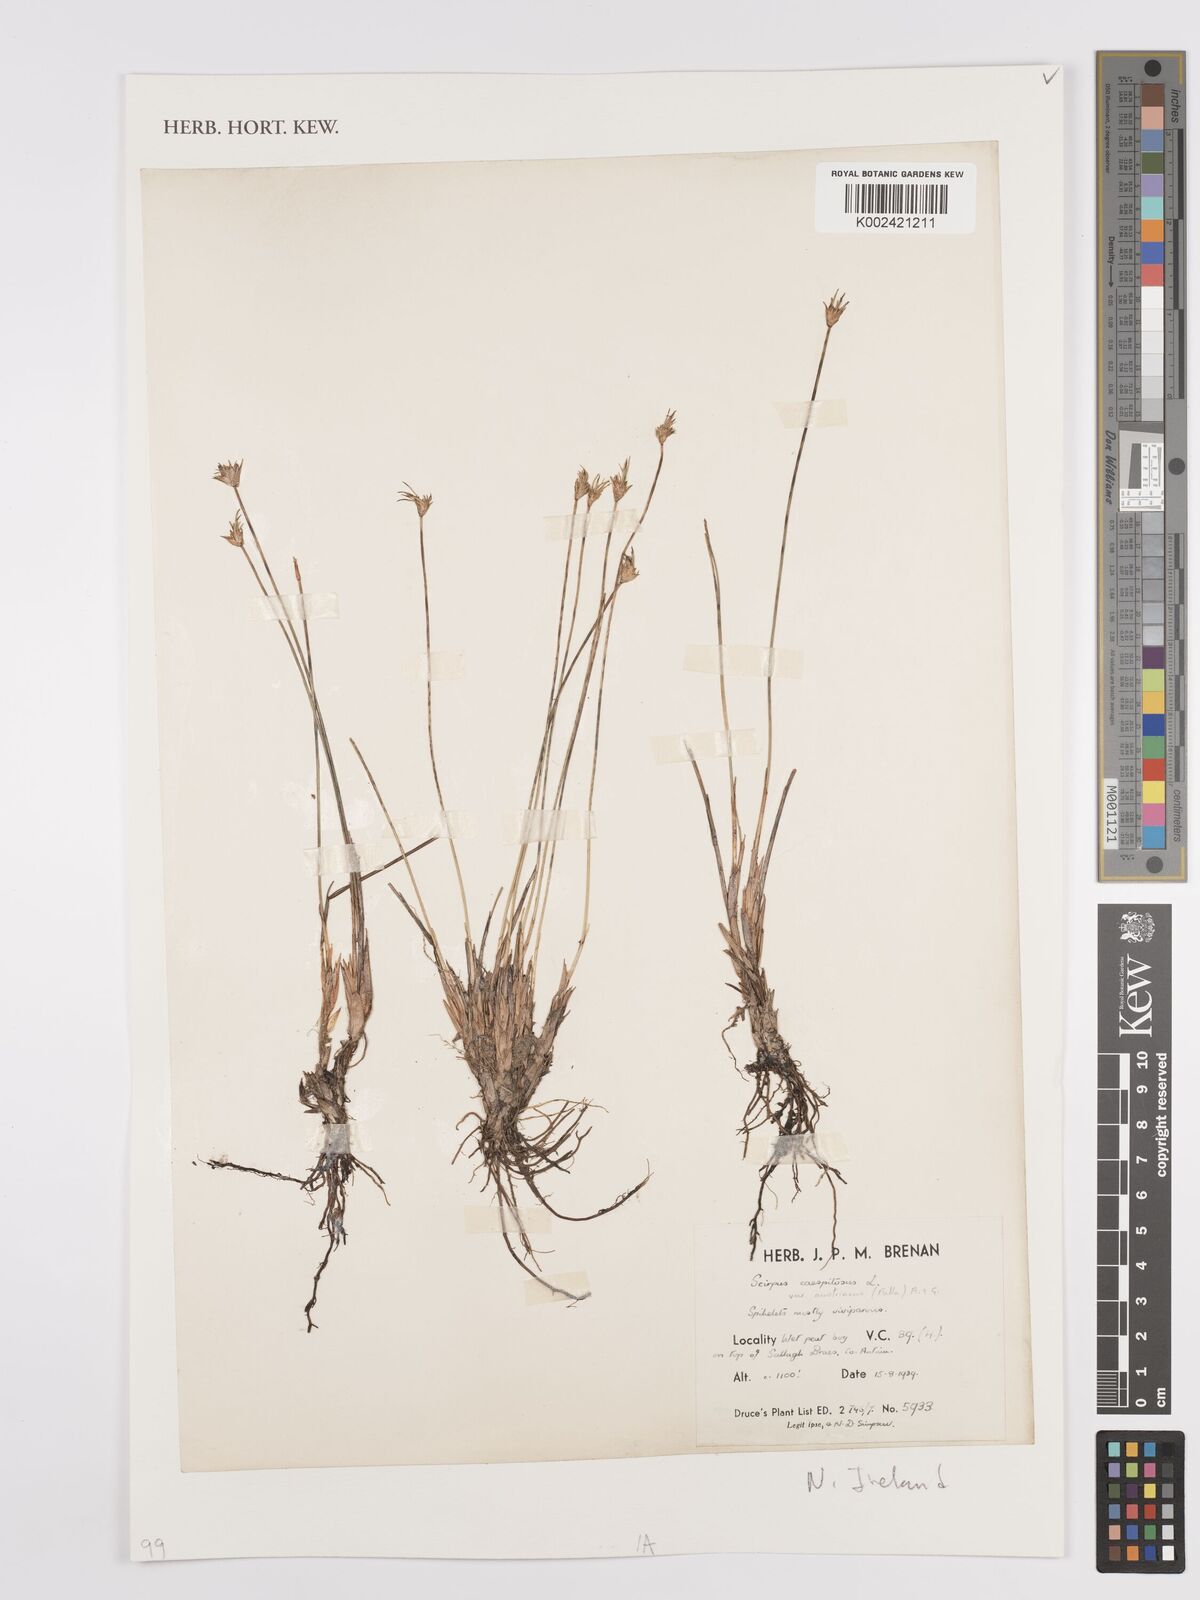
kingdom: Plantae
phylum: Tracheophyta
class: Liliopsida
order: Poales
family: Cyperaceae
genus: Eleocharis
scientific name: Eleocharis palustris
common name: Common spike-rush
